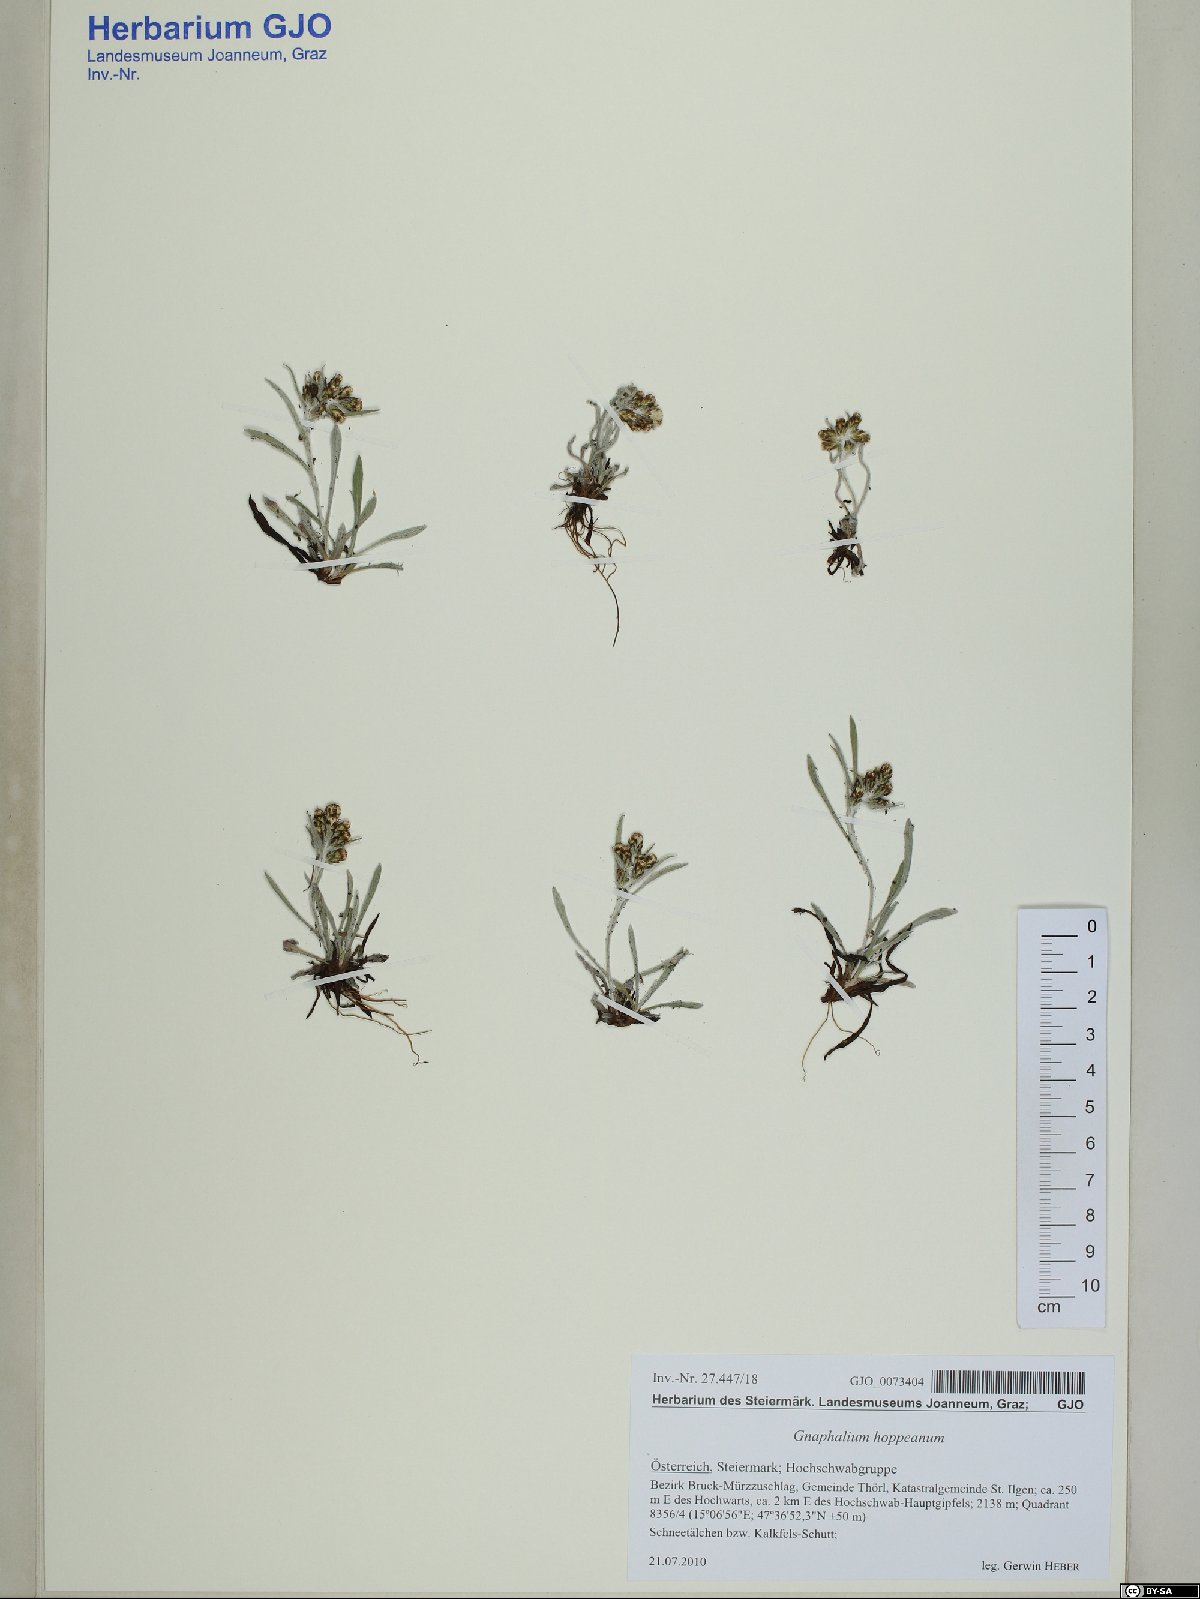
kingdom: Plantae
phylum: Tracheophyta
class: Magnoliopsida
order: Asterales
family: Asteraceae
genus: Omalotheca
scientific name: Omalotheca hoppeana
